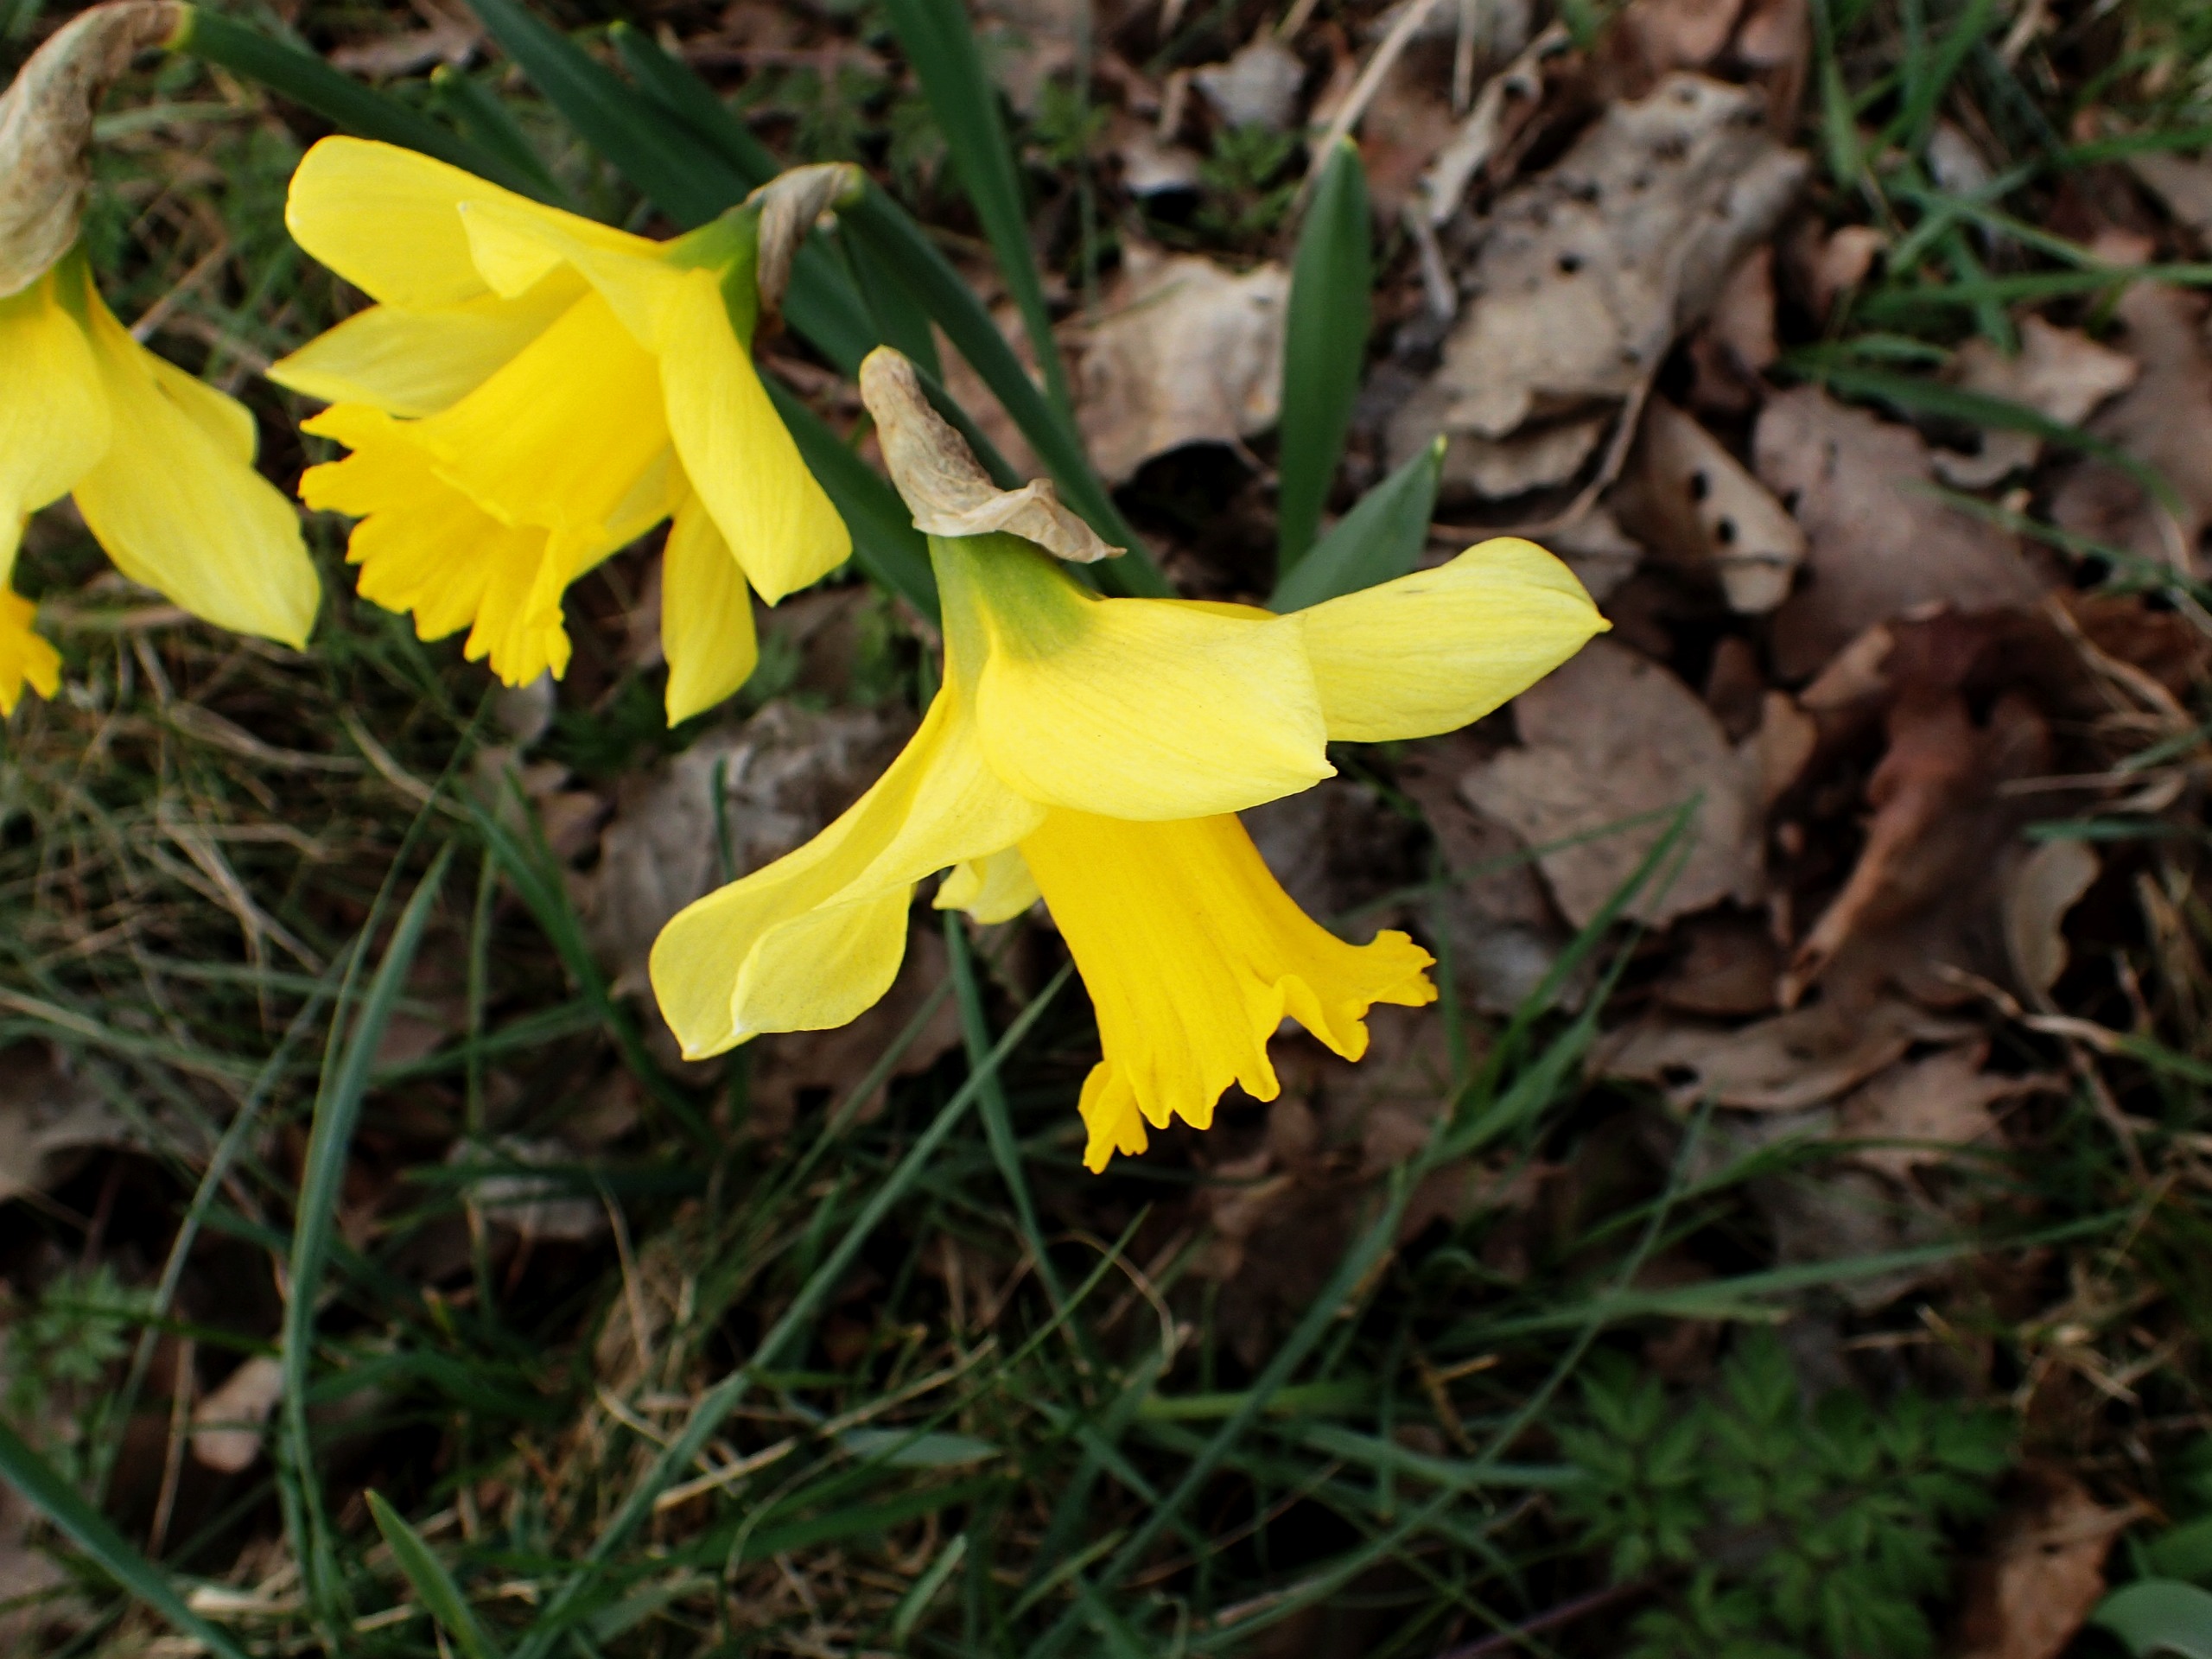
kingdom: Plantae
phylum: Tracheophyta
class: Liliopsida
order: Asparagales
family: Amaryllidaceae
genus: Narcissus
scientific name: Narcissus pseudonarcissus
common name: Påskelilje
